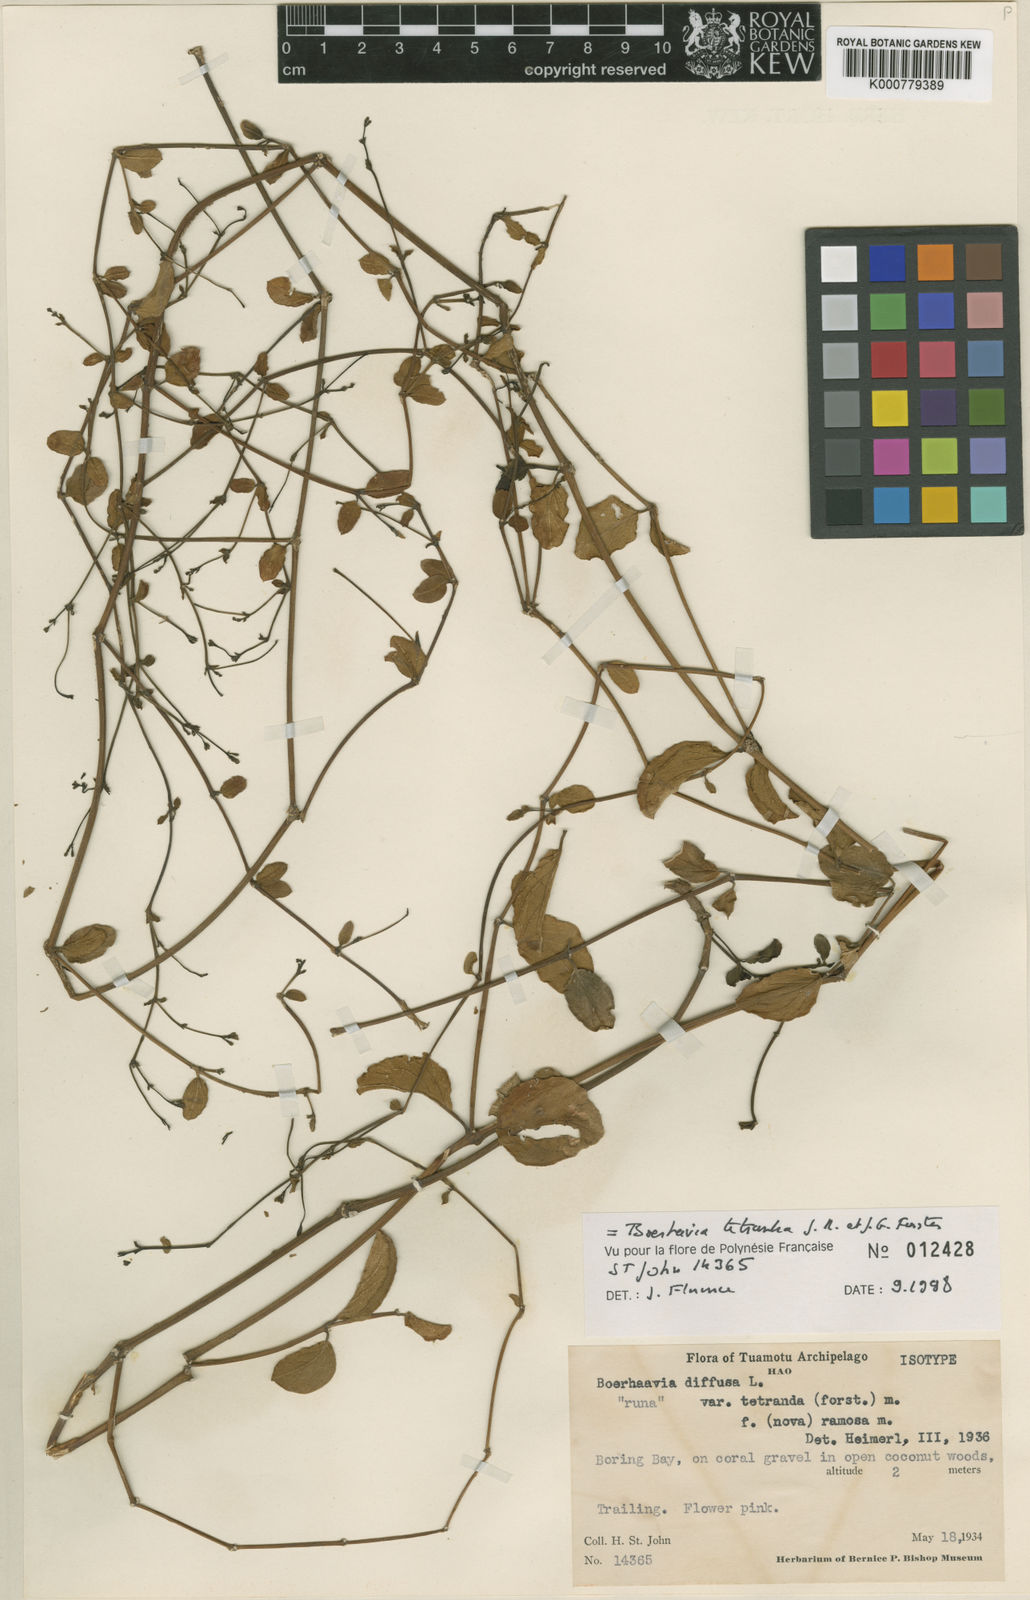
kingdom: Plantae
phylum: Tracheophyta
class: Magnoliopsida
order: Caryophyllales
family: Nyctaginaceae
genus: Boerhavia
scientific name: Boerhavia tetrandra
